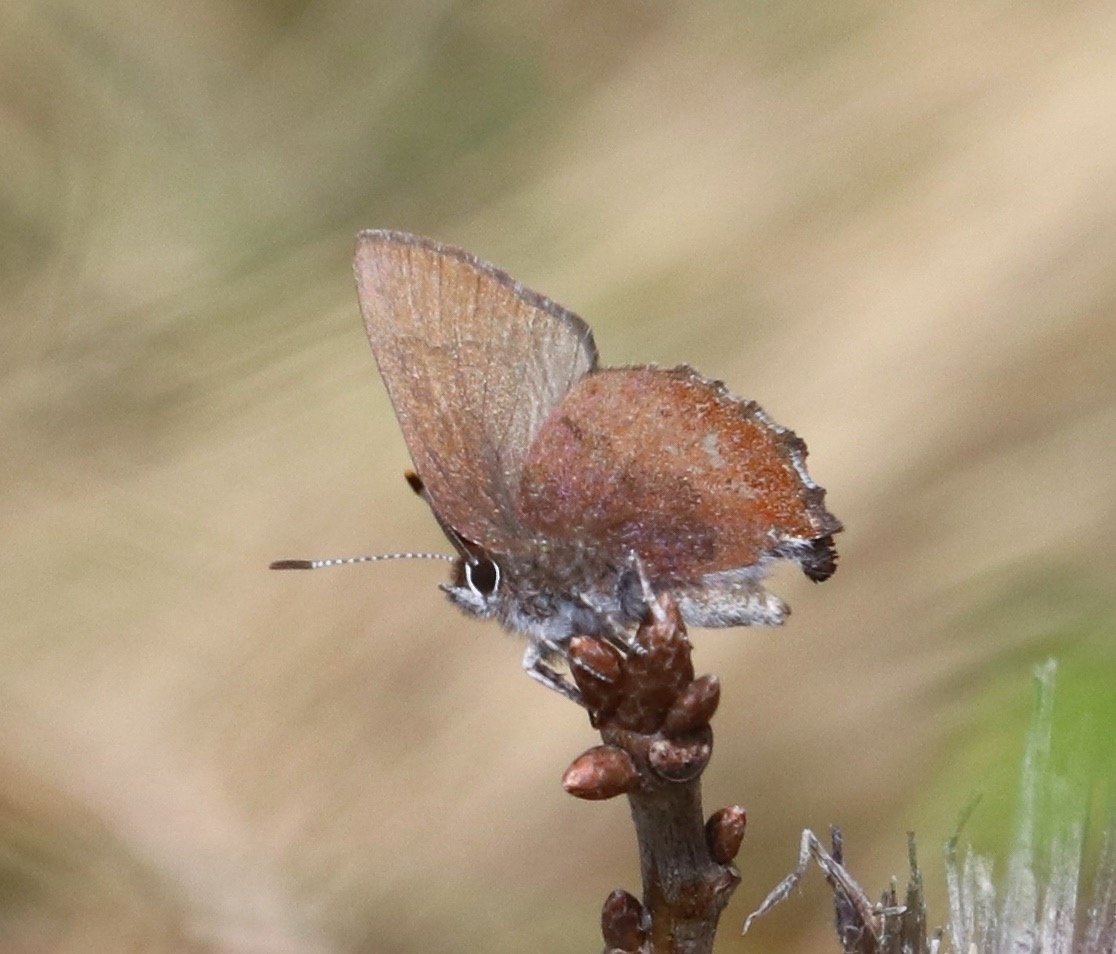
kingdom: Animalia
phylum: Arthropoda
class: Insecta
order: Lepidoptera
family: Lycaenidae
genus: Incisalia
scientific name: Incisalia irioides
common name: Brown Elfin
